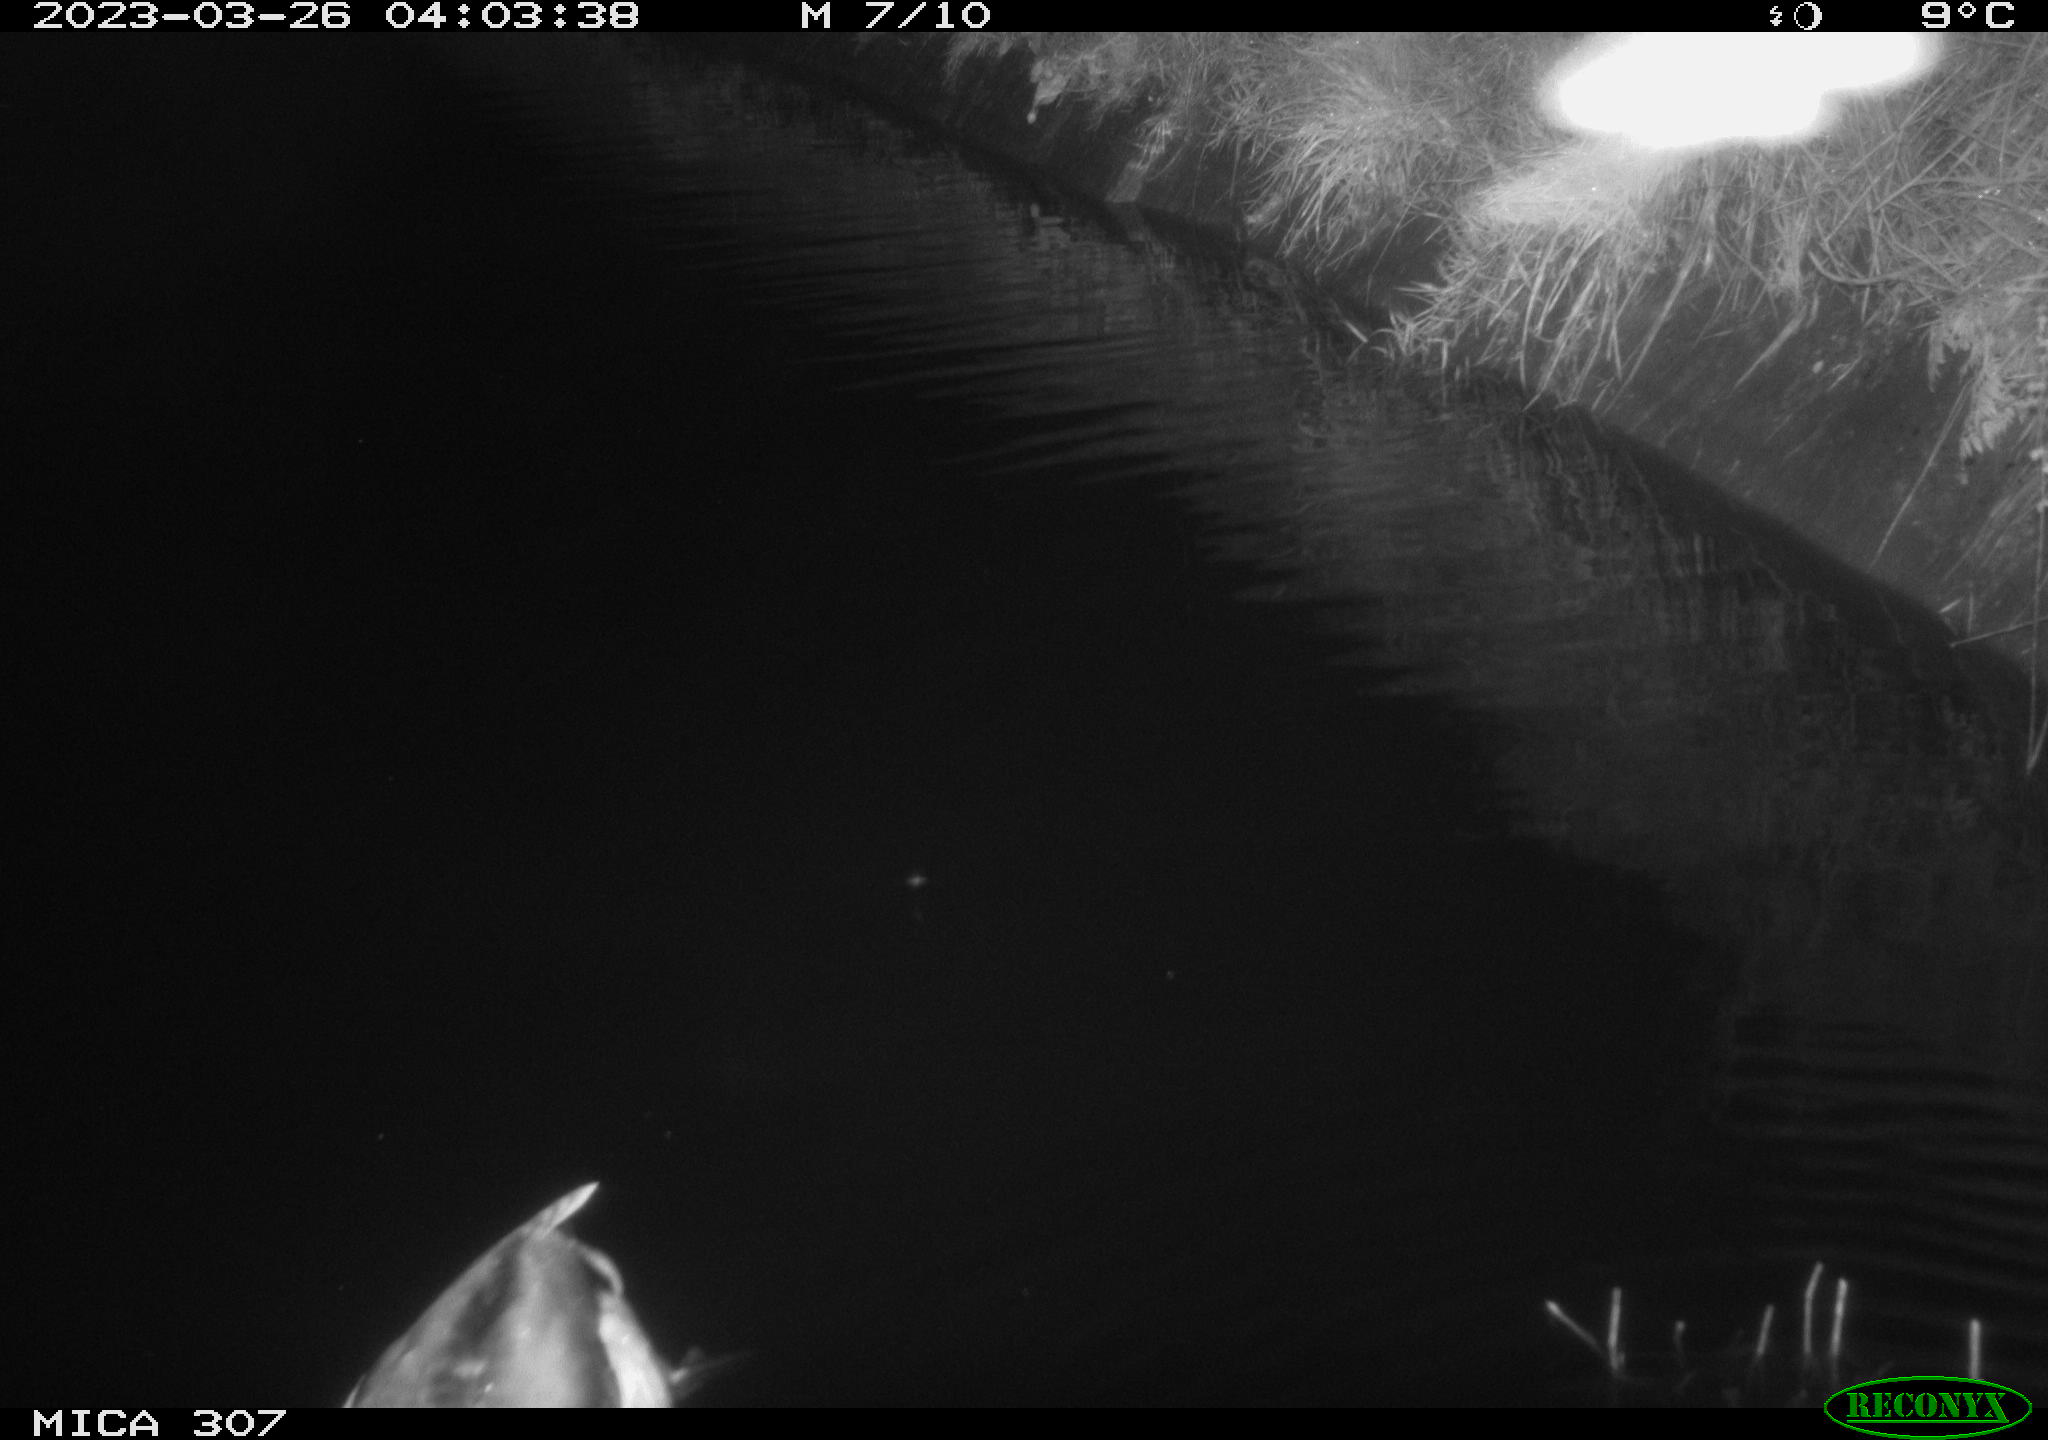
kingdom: Animalia
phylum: Chordata
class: Aves
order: Anseriformes
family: Anatidae
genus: Anas
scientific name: Anas
